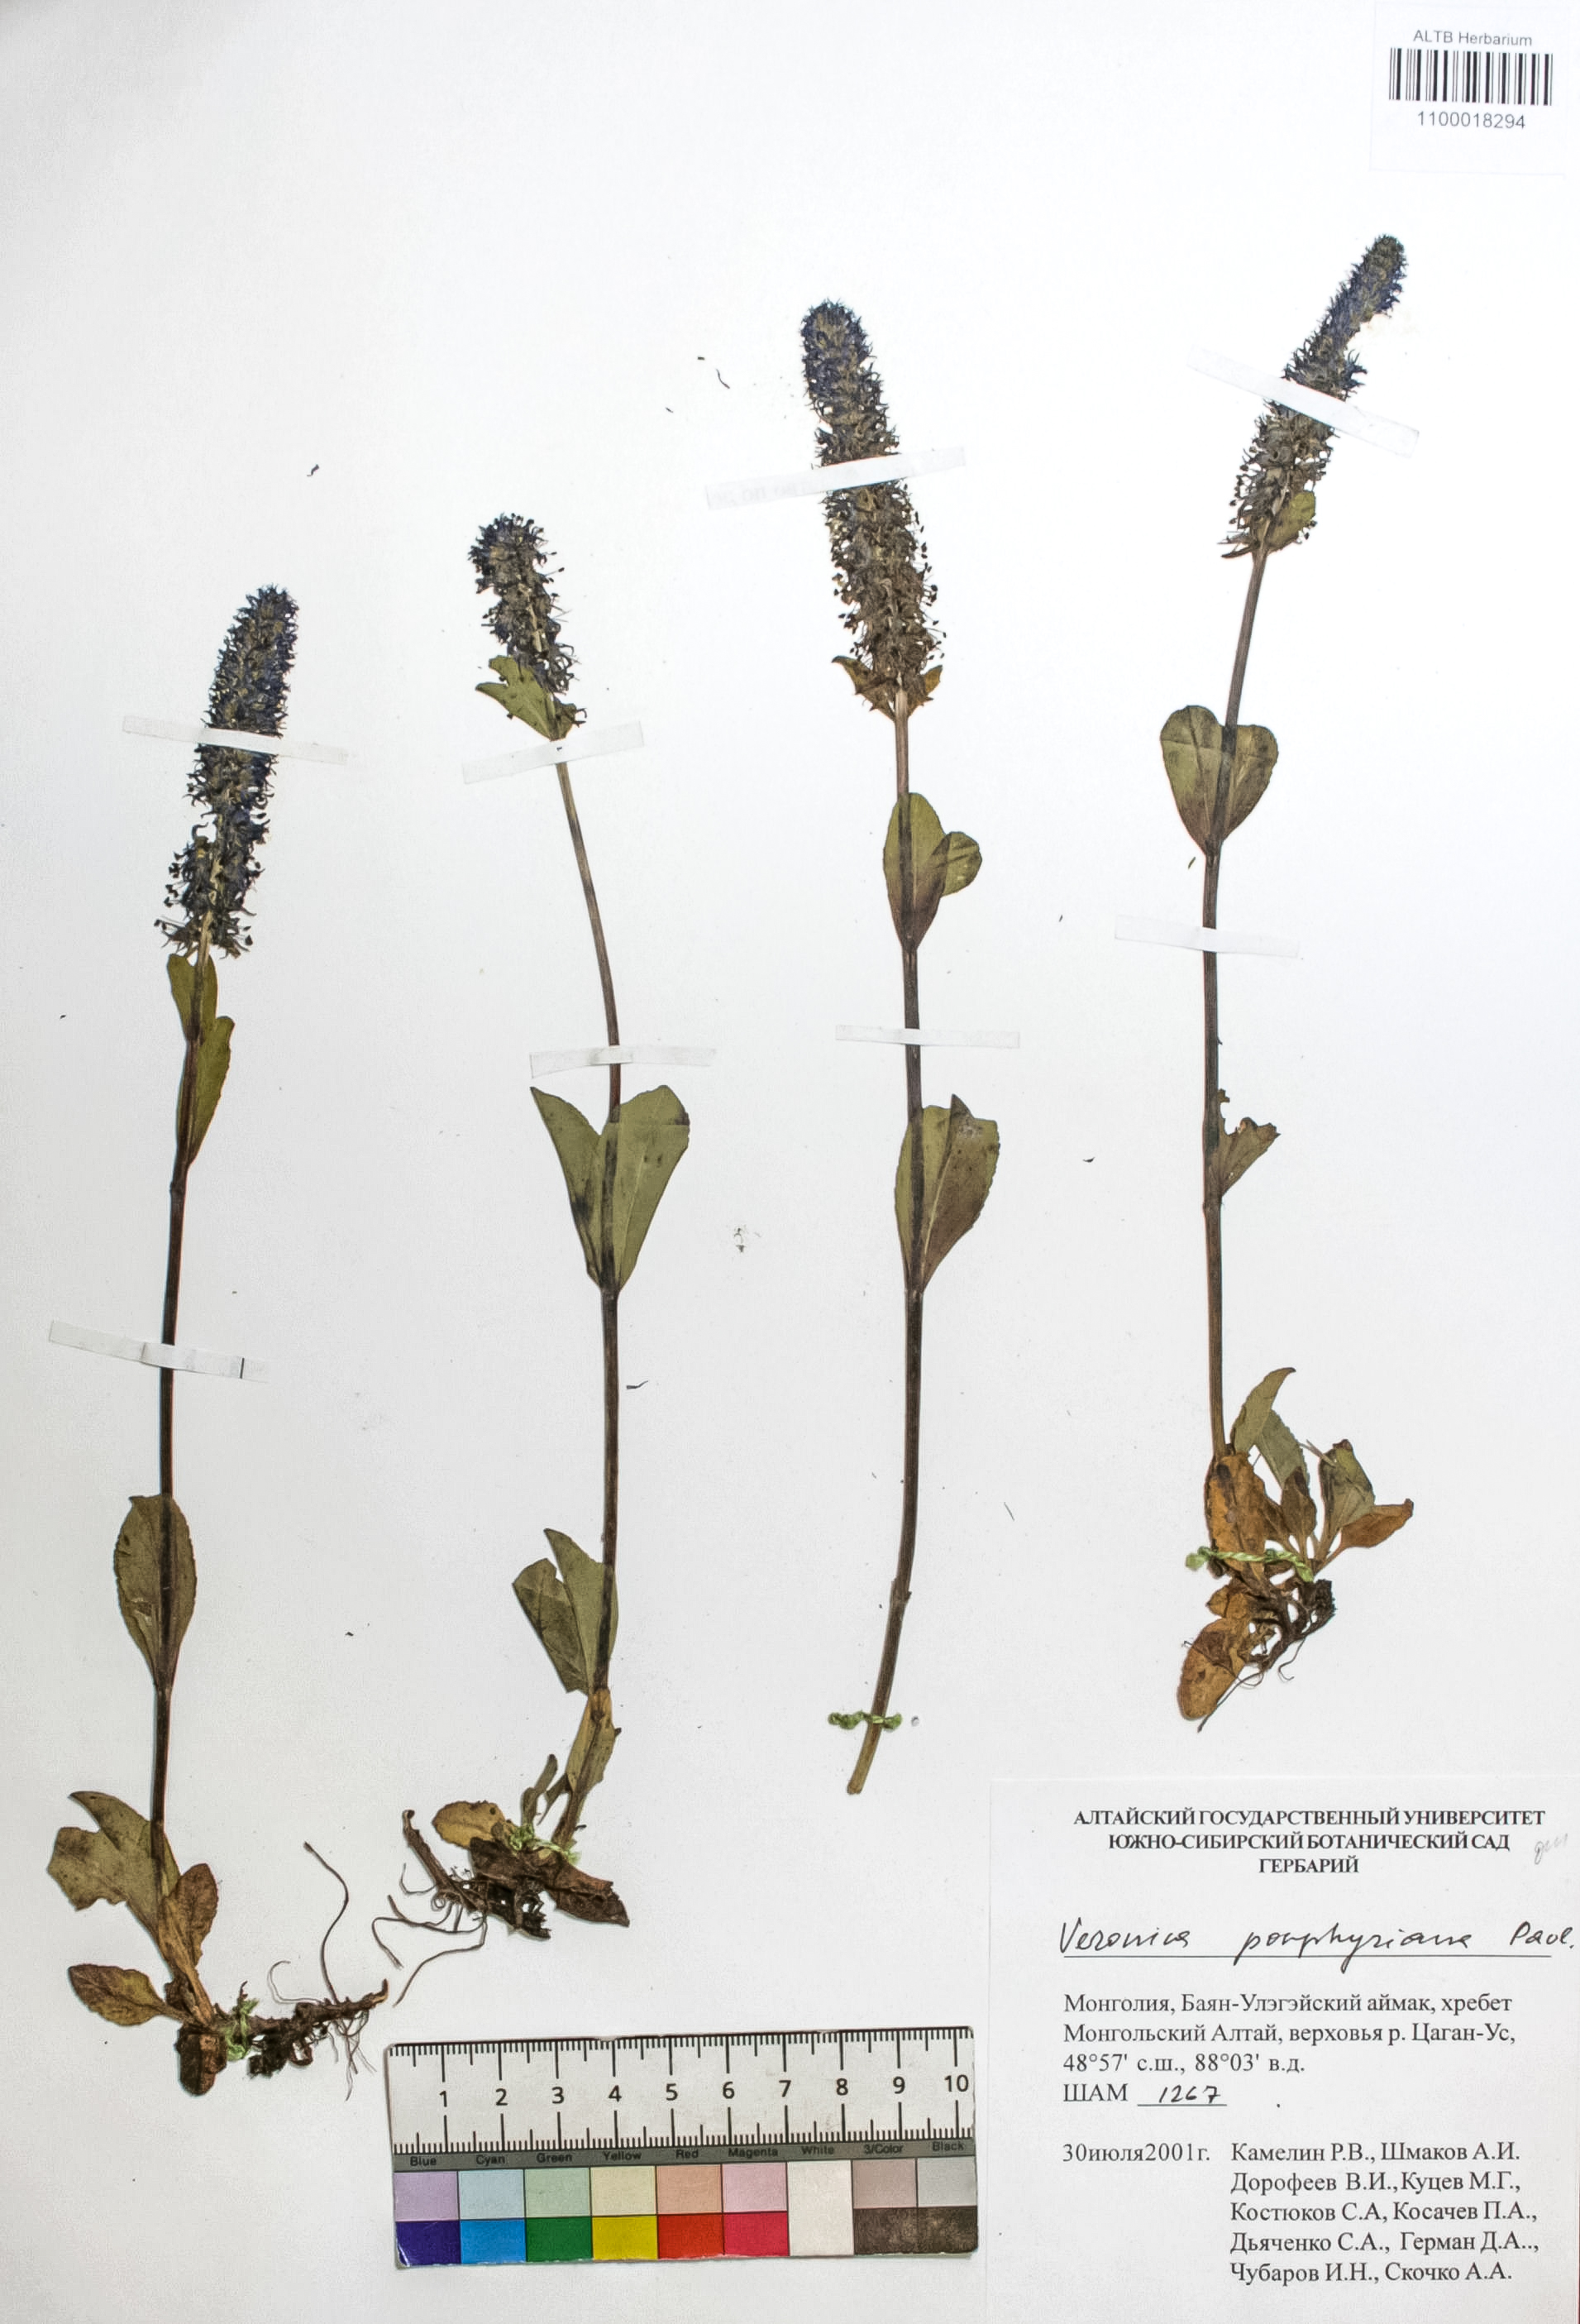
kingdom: Plantae
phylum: Tracheophyta
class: Magnoliopsida
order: Lamiales
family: Plantaginaceae
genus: Veronica
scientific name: Veronica porphyriana
